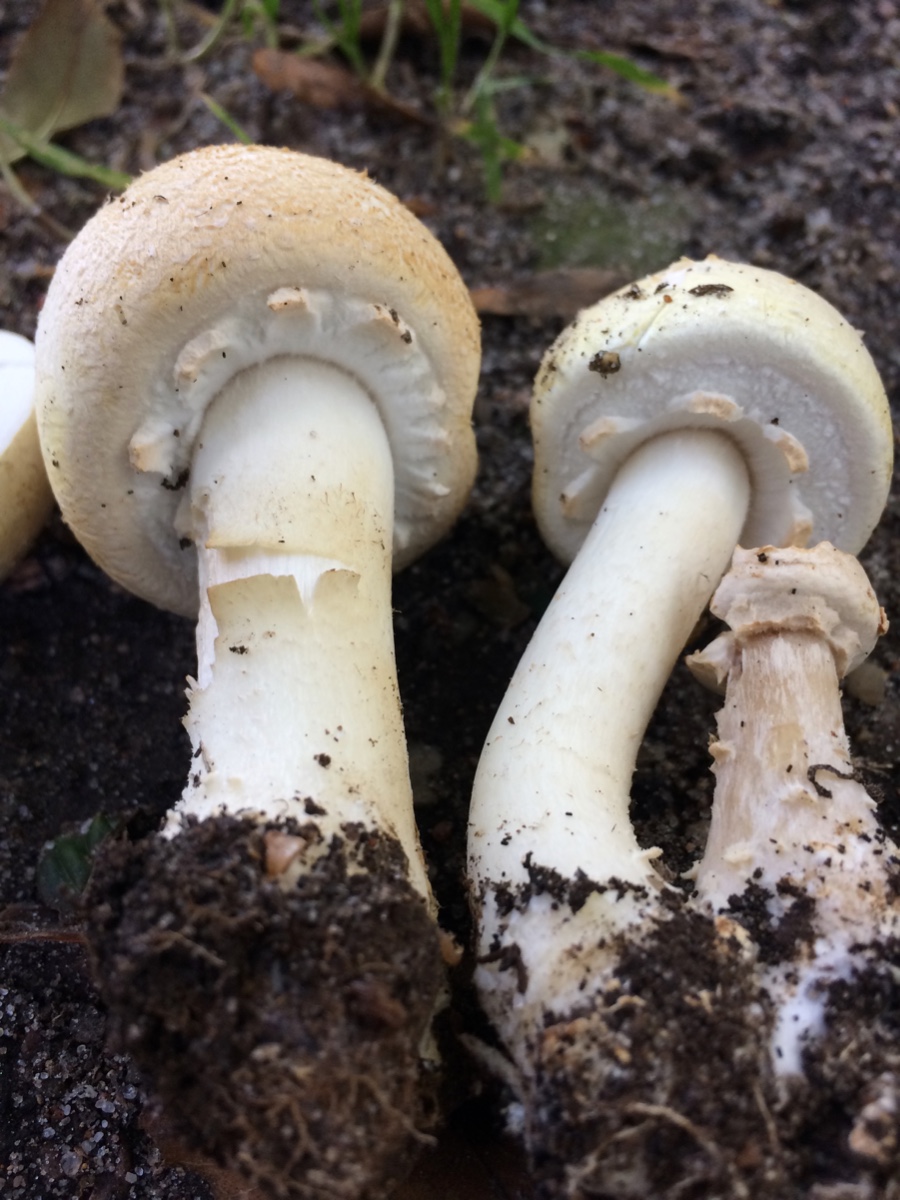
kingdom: Fungi
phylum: Basidiomycota
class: Agaricomycetes
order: Agaricales
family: Agaricaceae
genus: Agaricus
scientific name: Agaricus arvensis
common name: ager-champignon
